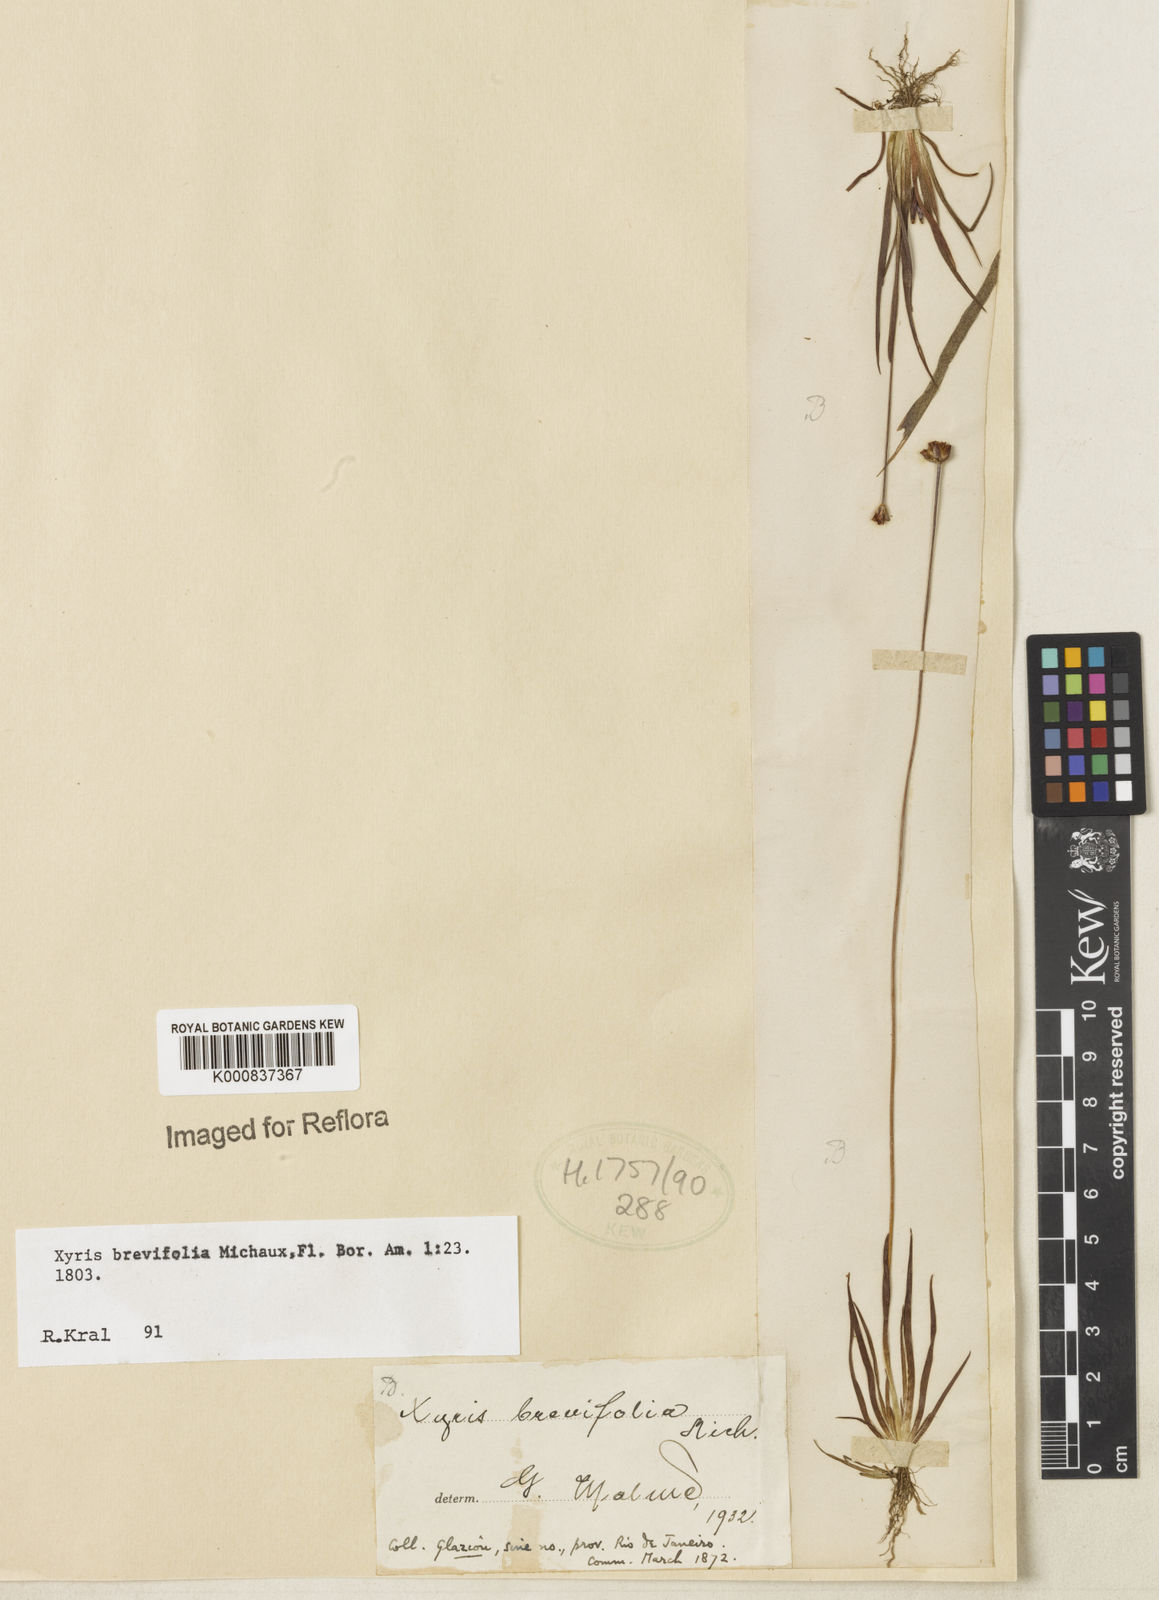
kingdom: Plantae
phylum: Tracheophyta
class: Liliopsida
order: Poales
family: Xyridaceae
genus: Xyris
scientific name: Xyris brevifolia
